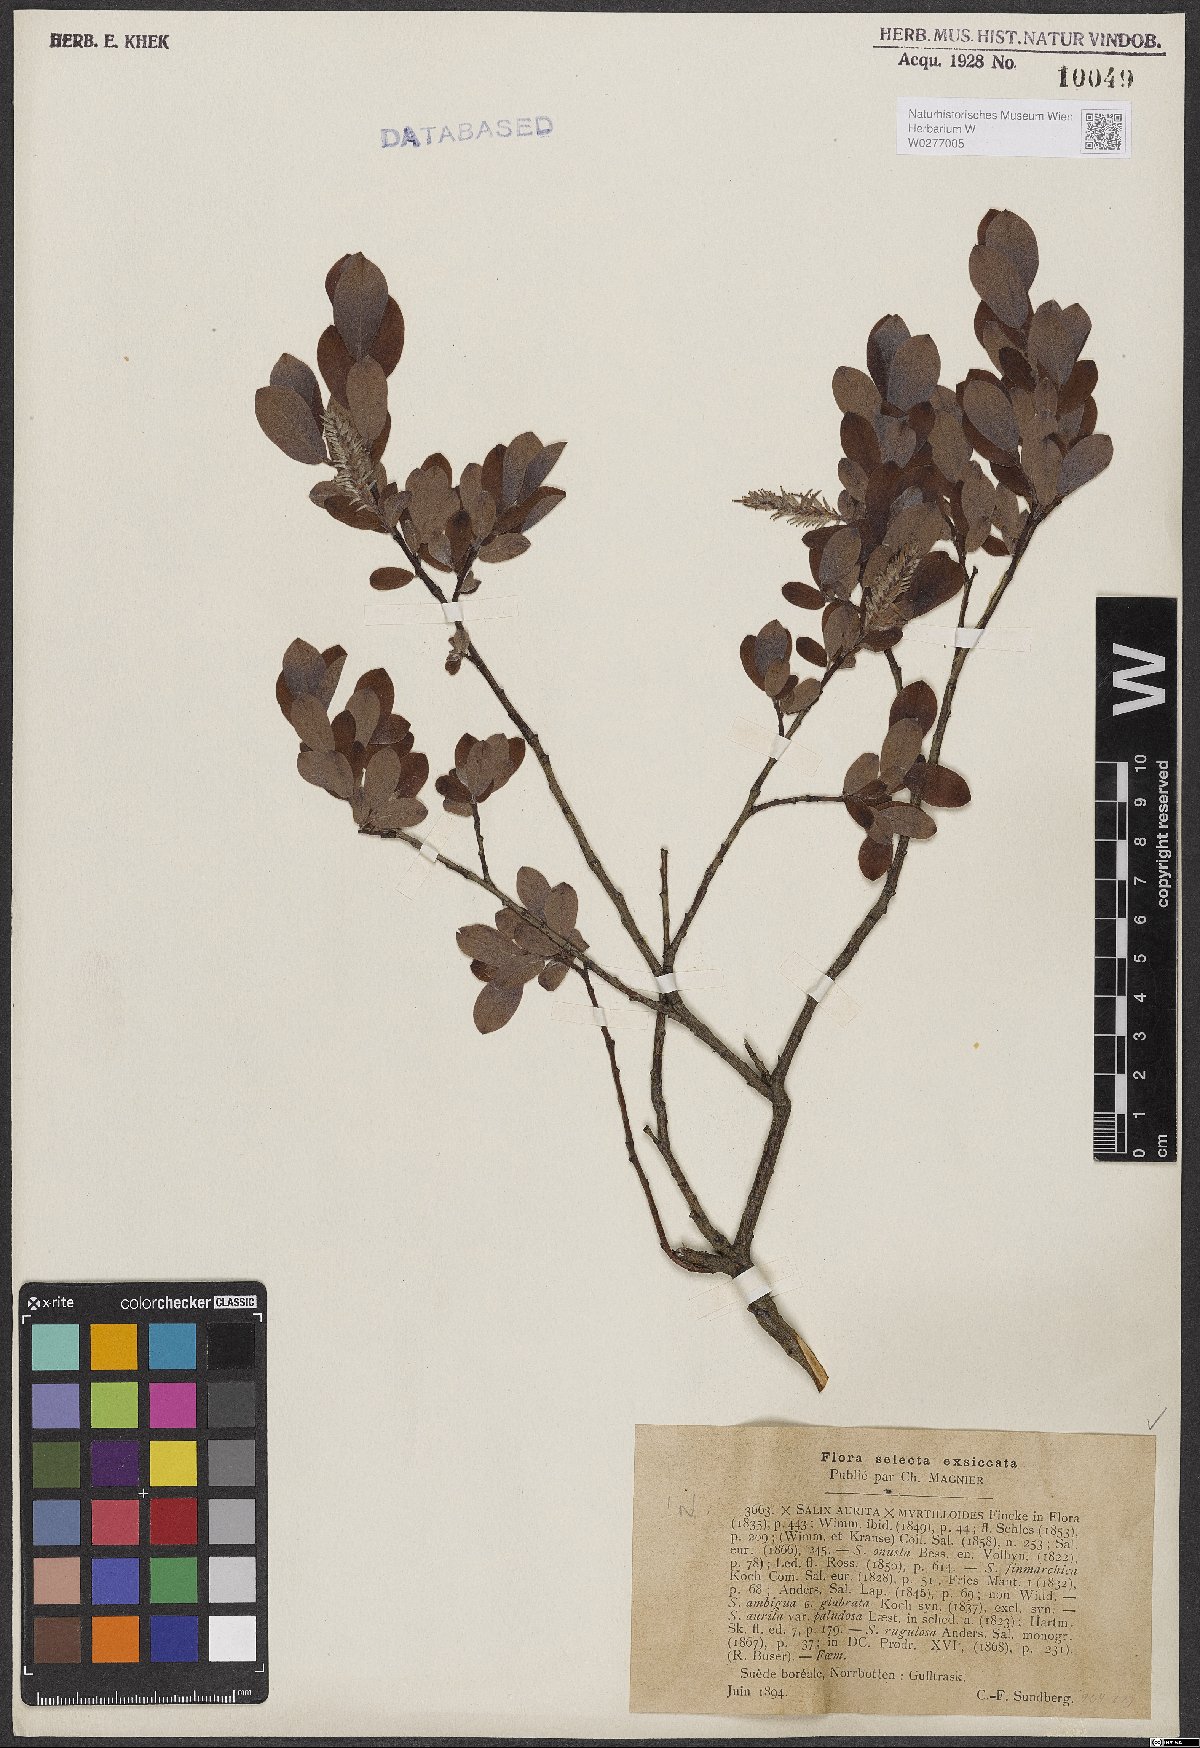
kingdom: Plantae
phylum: Tracheophyta
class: Magnoliopsida
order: Malpighiales
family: Salicaceae
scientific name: Salicaceae
